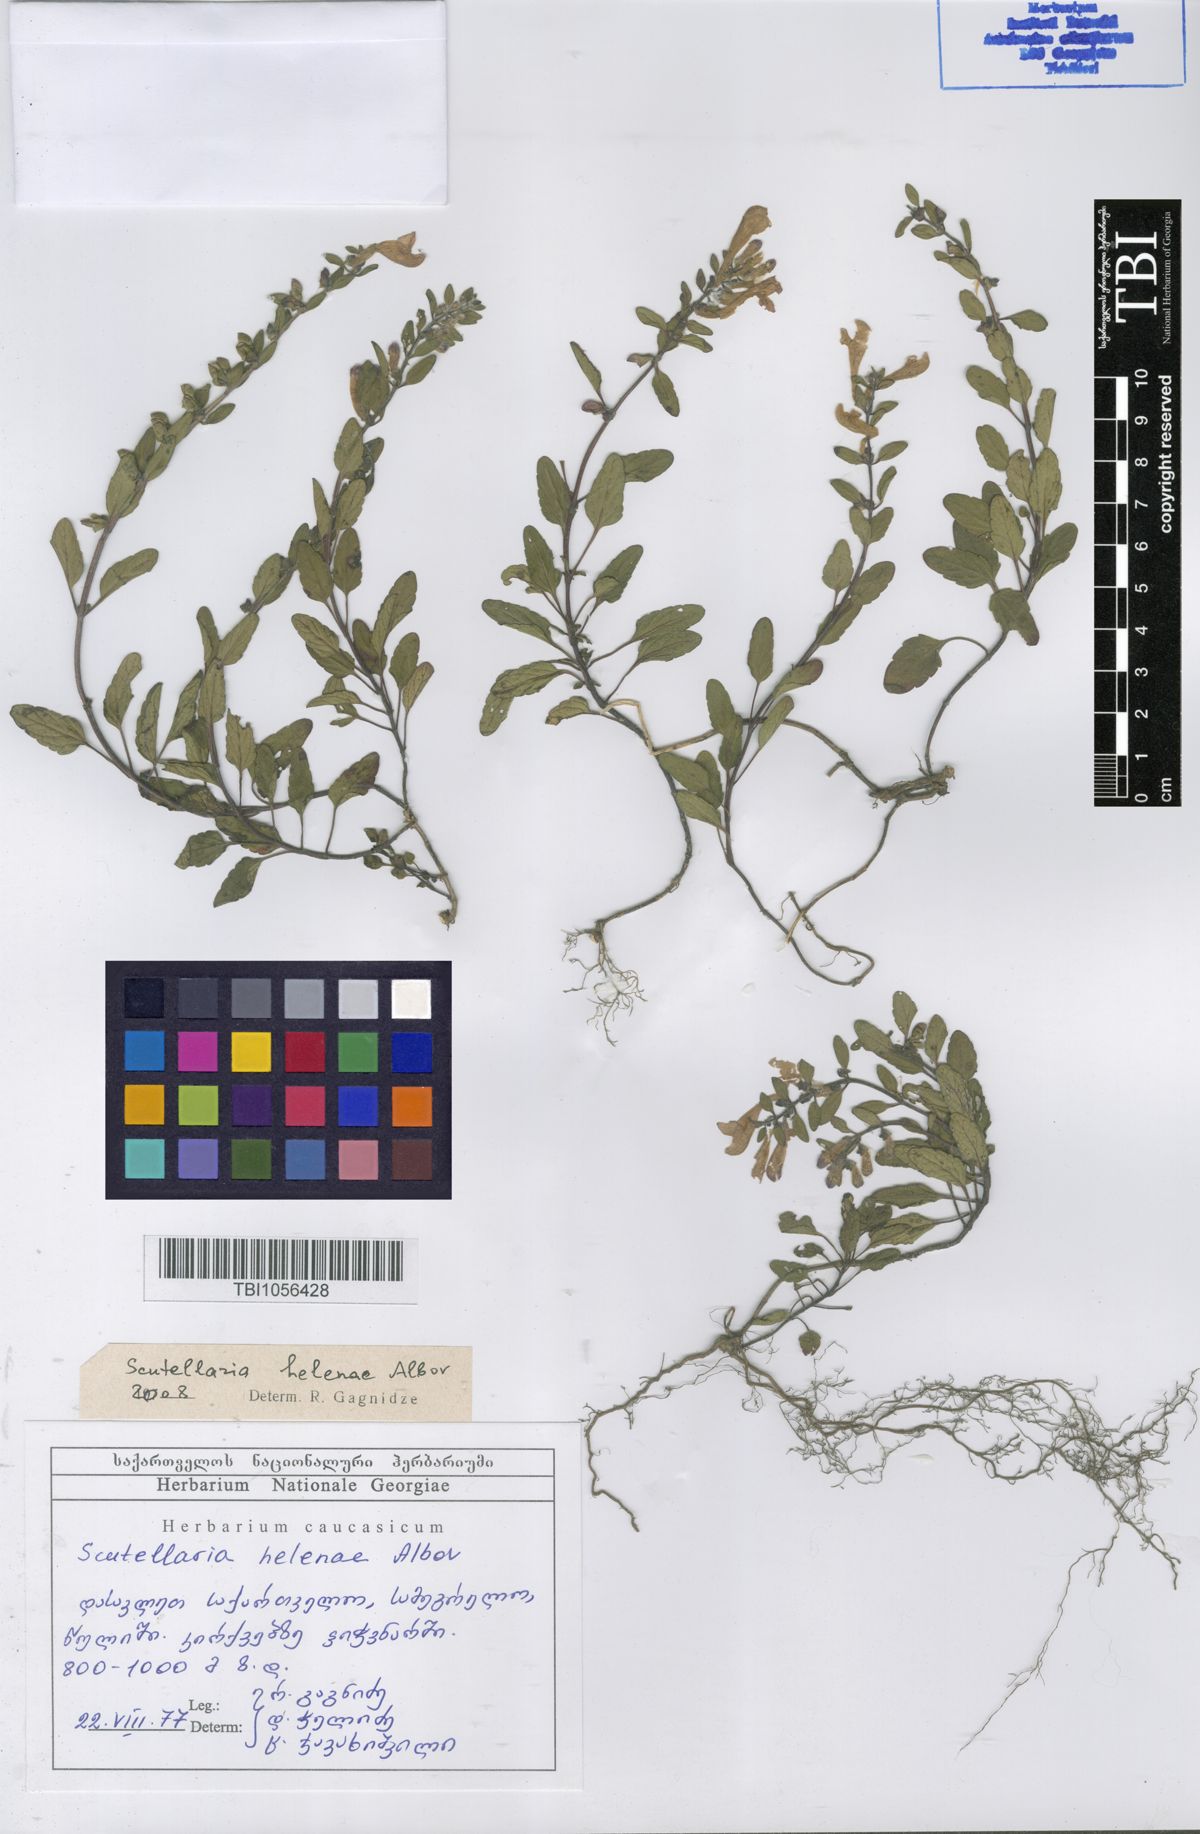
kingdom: Plantae
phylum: Tracheophyta
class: Magnoliopsida
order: Lamiales
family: Lamiaceae
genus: Scutellaria
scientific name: Scutellaria helenae
